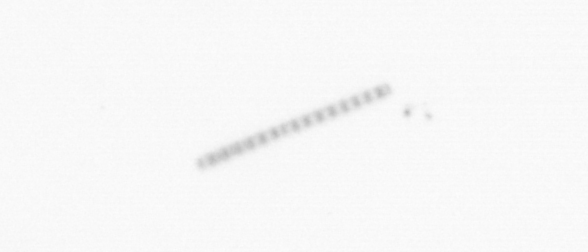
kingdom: Chromista
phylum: Ochrophyta
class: Bacillariophyceae
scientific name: Bacillariophyceae
